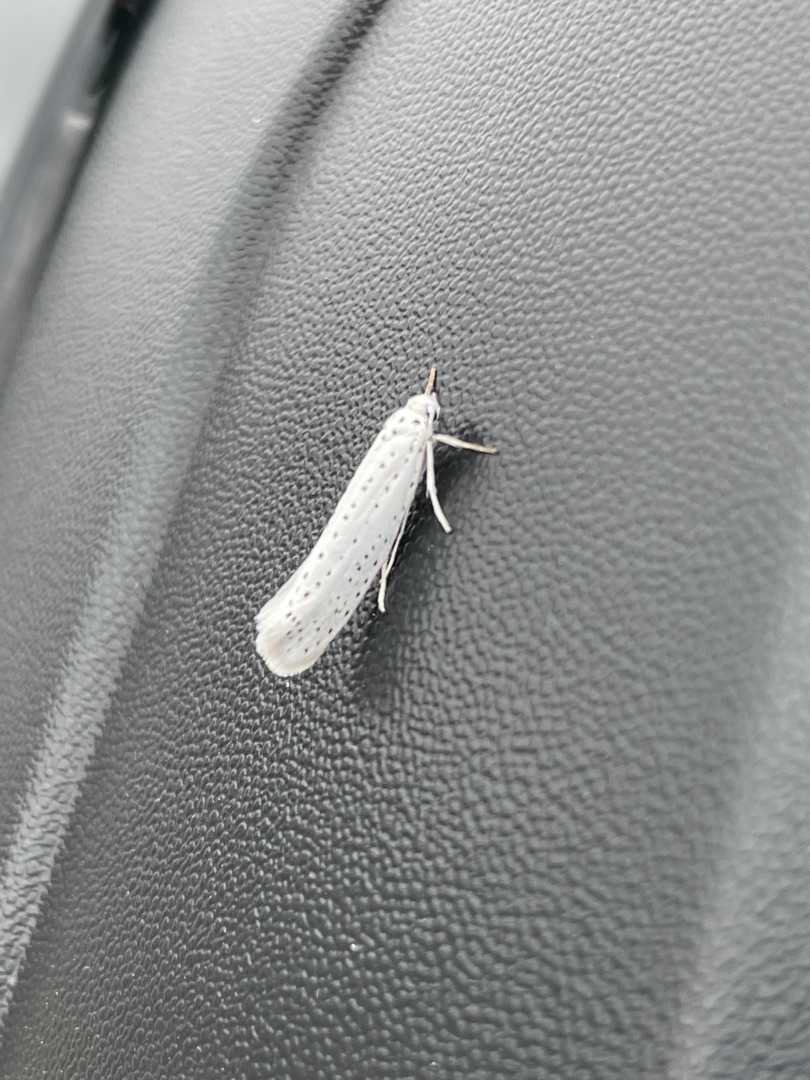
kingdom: Animalia
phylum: Arthropoda
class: Insecta
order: Lepidoptera
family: Yponomeutidae
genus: Yponomeuta
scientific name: Yponomeuta evonymella
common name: Hægspindemøl
